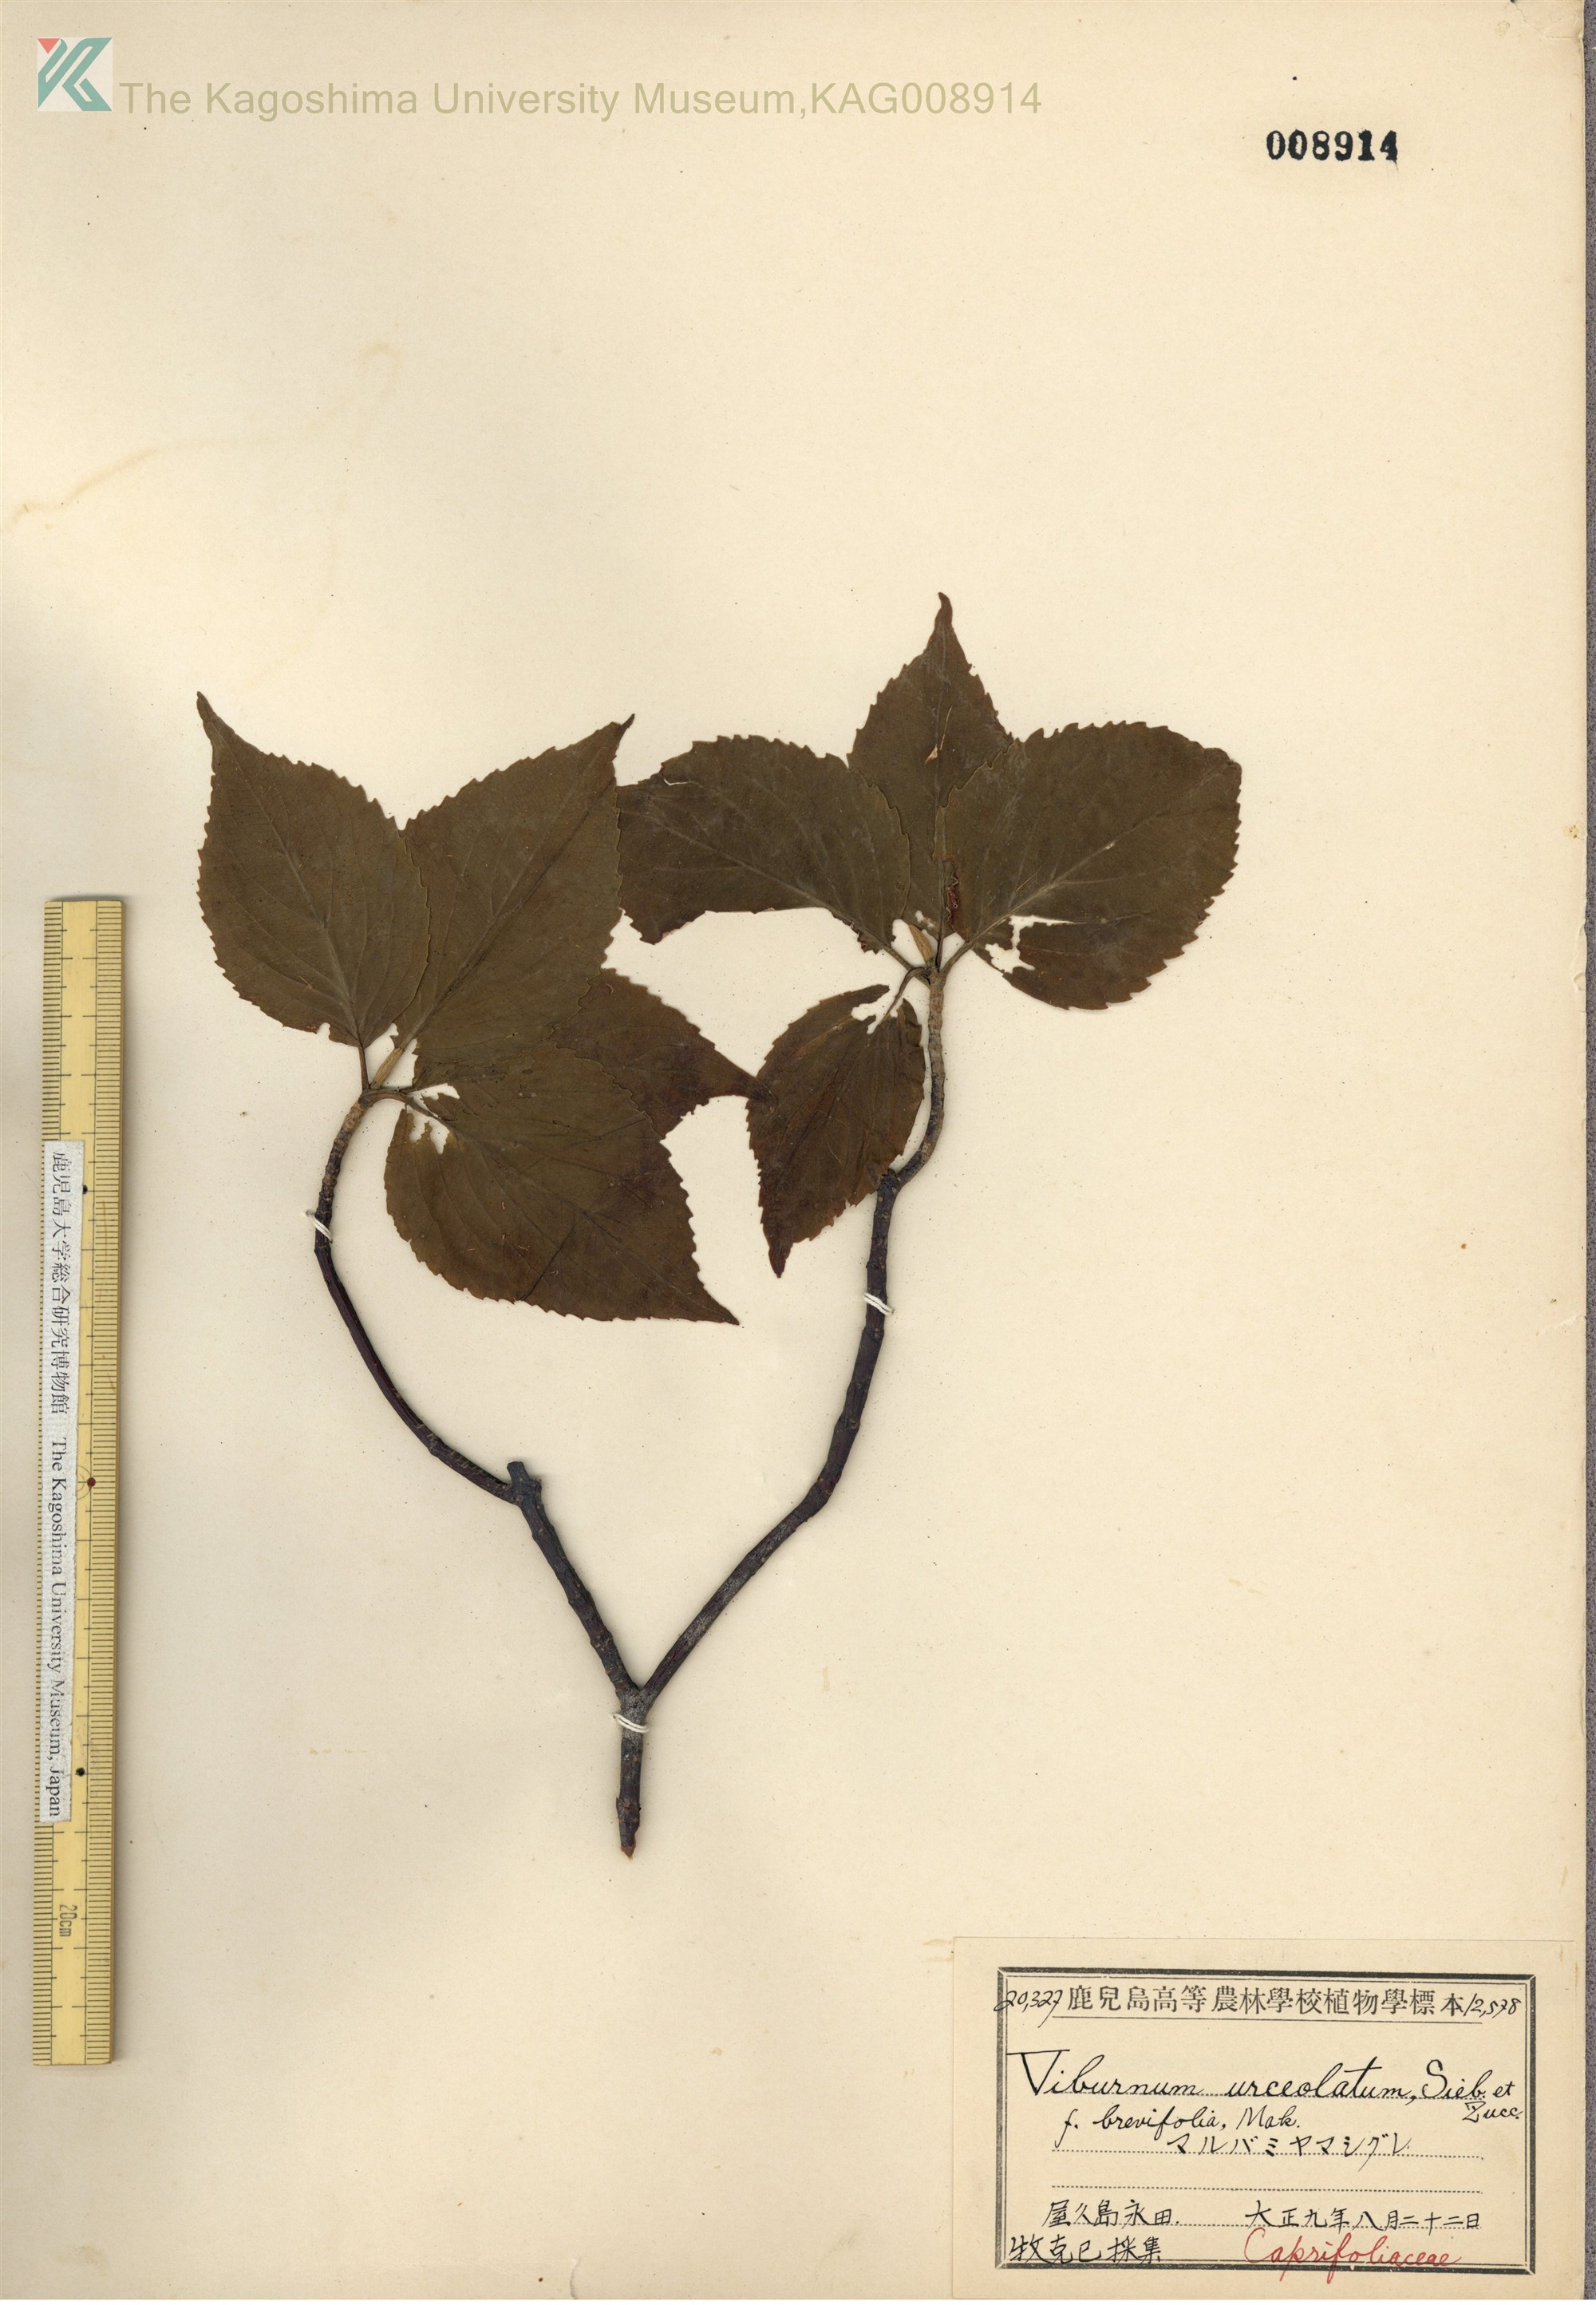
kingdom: Plantae
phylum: Tracheophyta
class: Magnoliopsida
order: Dipsacales
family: Viburnaceae
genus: Viburnum
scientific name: Viburnum urceolatum
